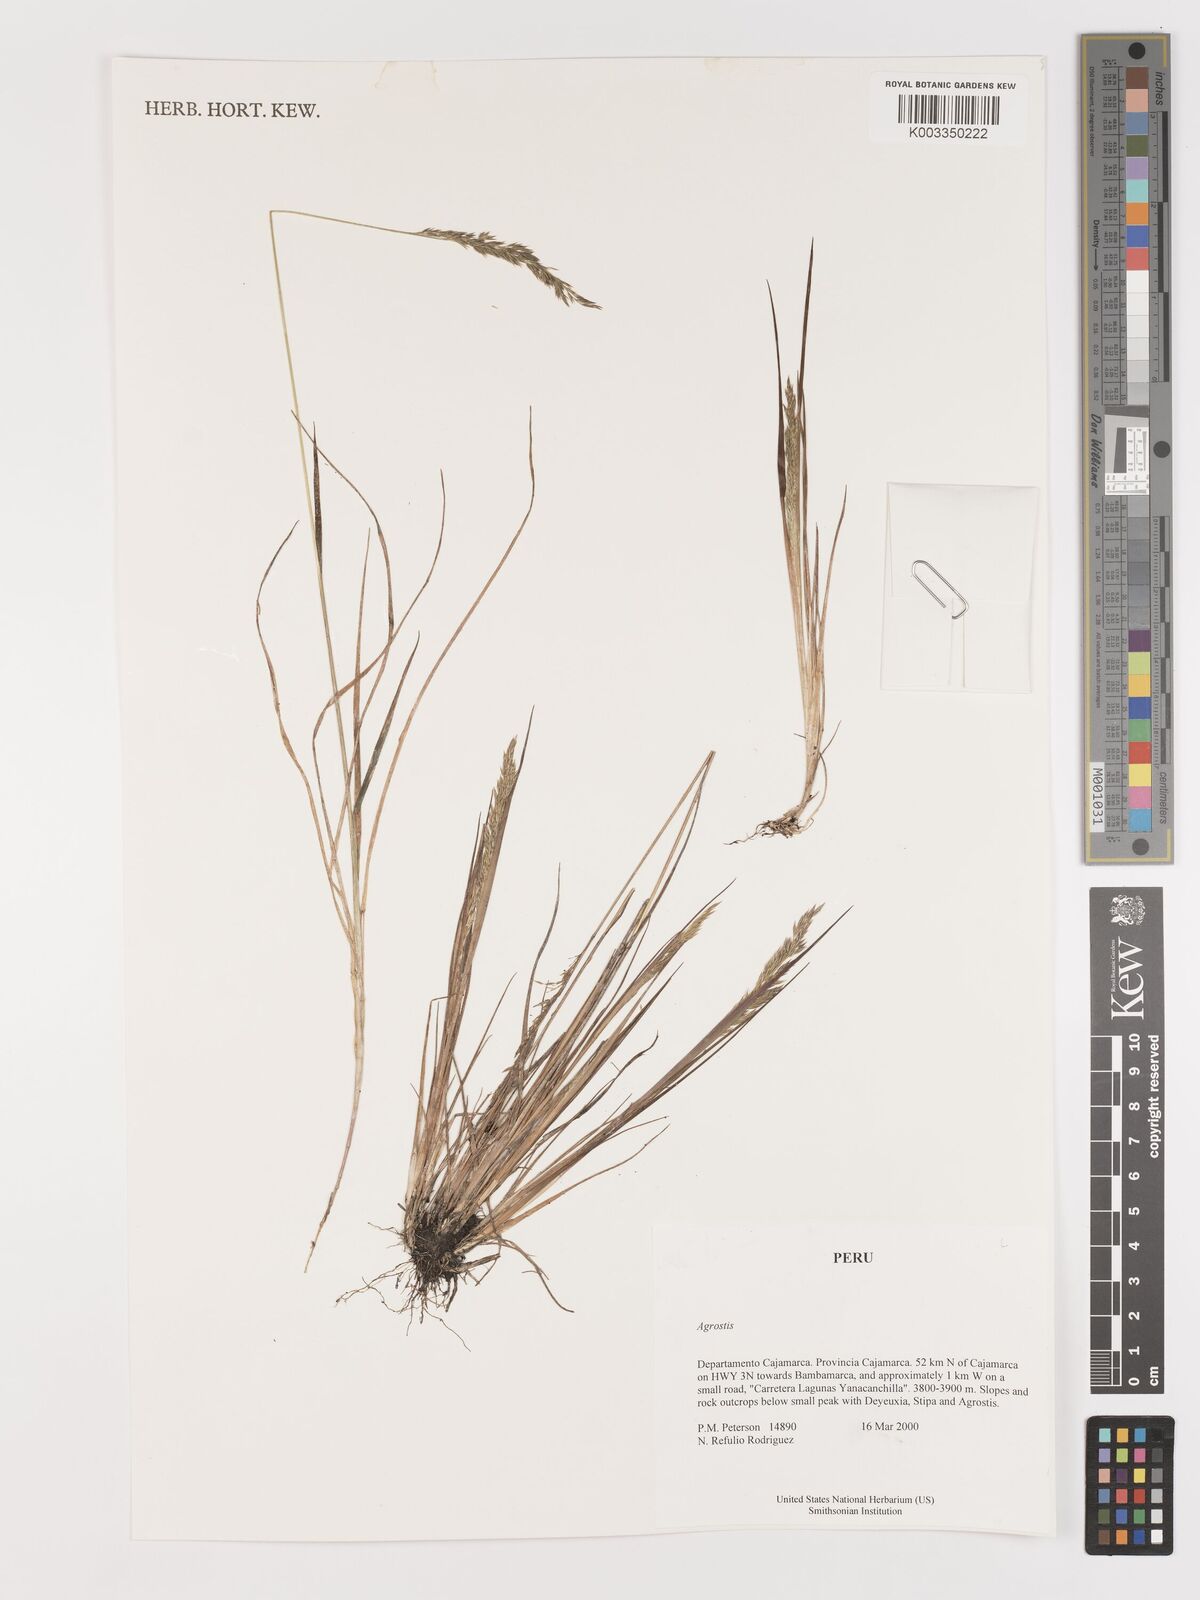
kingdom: Plantae
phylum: Tracheophyta
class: Liliopsida
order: Poales
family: Poaceae
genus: Agrostis
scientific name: Agrostis
